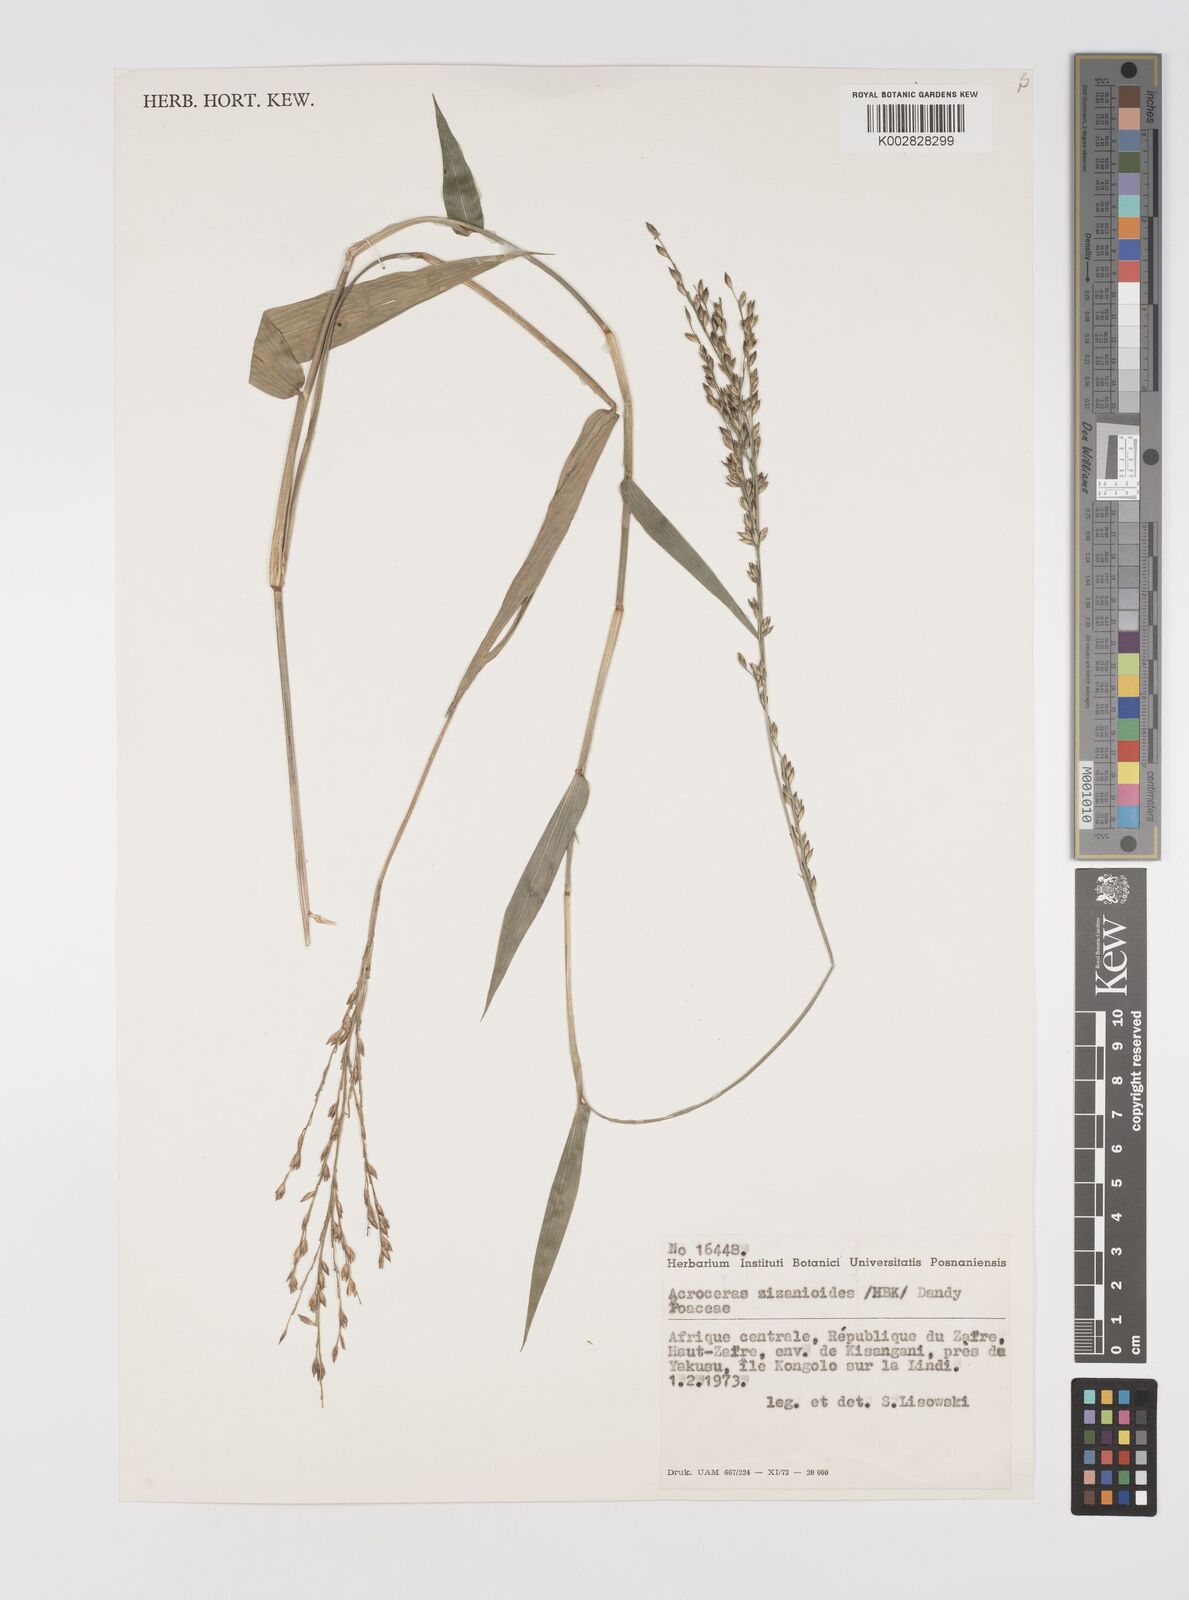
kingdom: Plantae
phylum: Tracheophyta
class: Liliopsida
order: Poales
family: Poaceae
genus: Acroceras
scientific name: Acroceras zizanioides
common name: Oat grass
